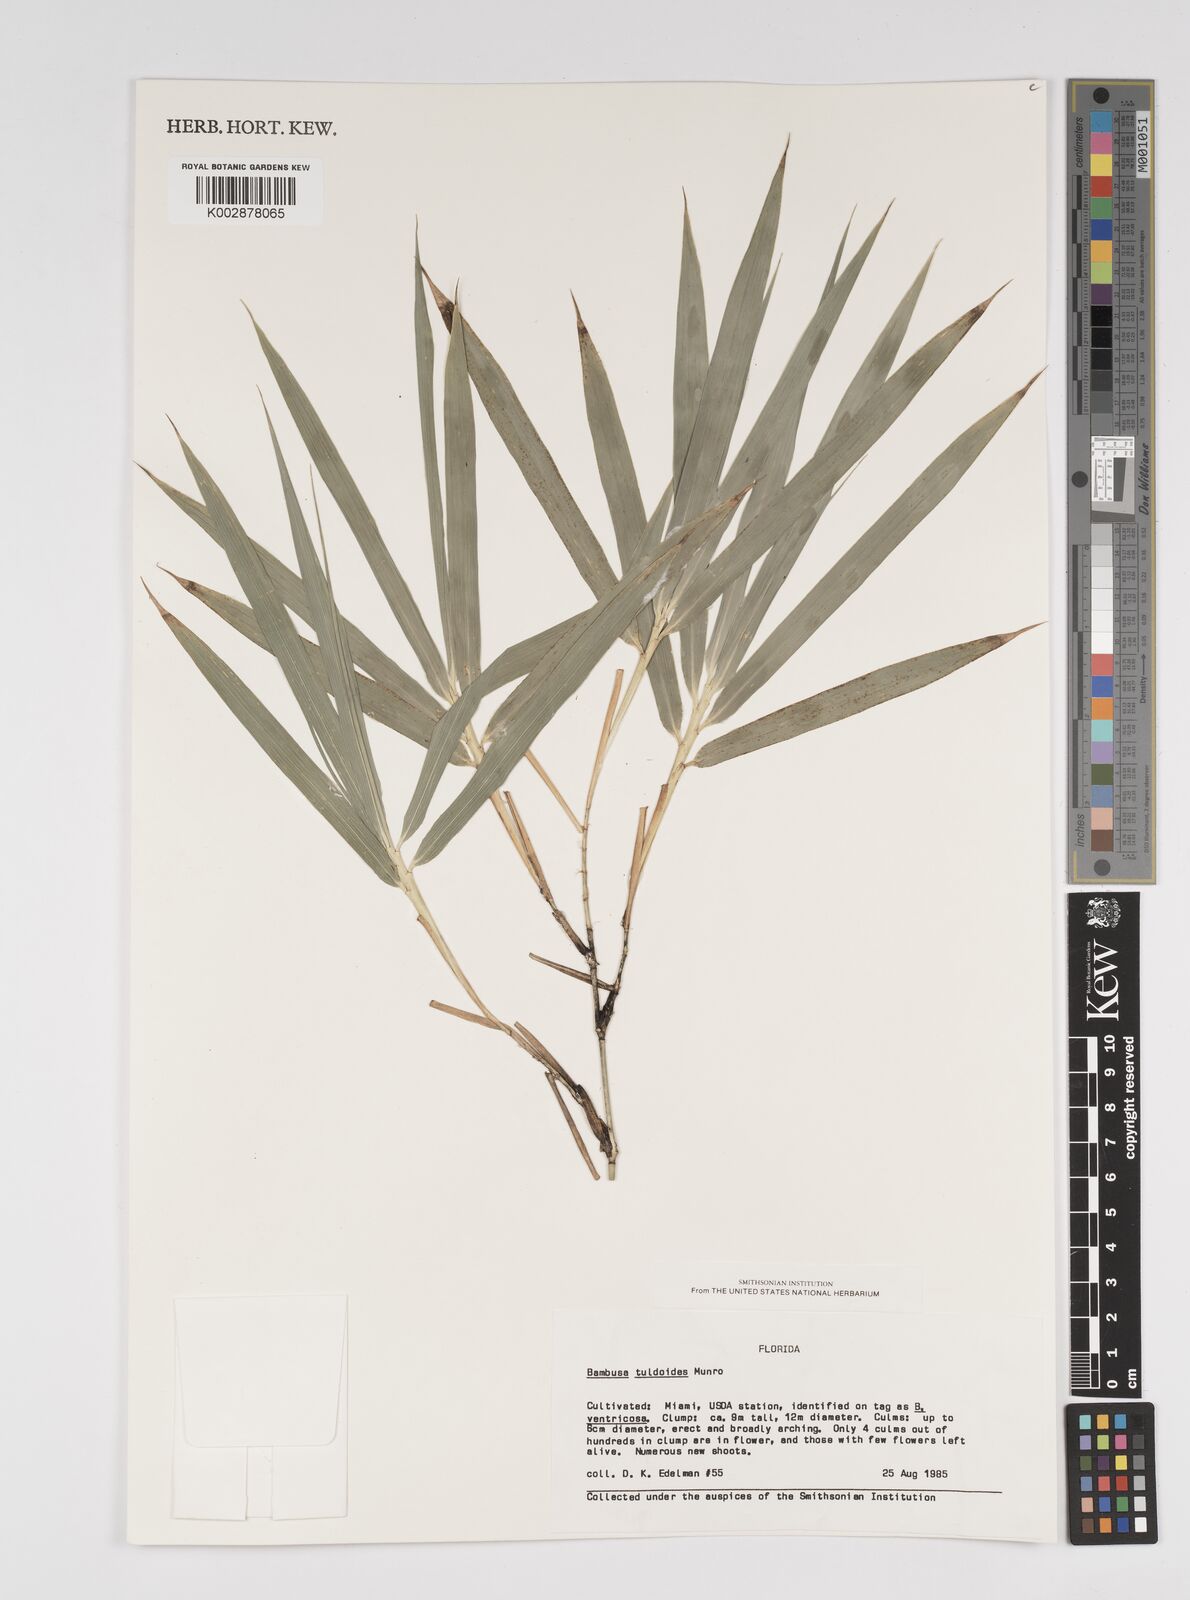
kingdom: Plantae
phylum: Tracheophyta
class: Liliopsida
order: Poales
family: Poaceae
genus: Bambusa
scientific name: Bambusa tuldoides
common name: Verdant bamboo
